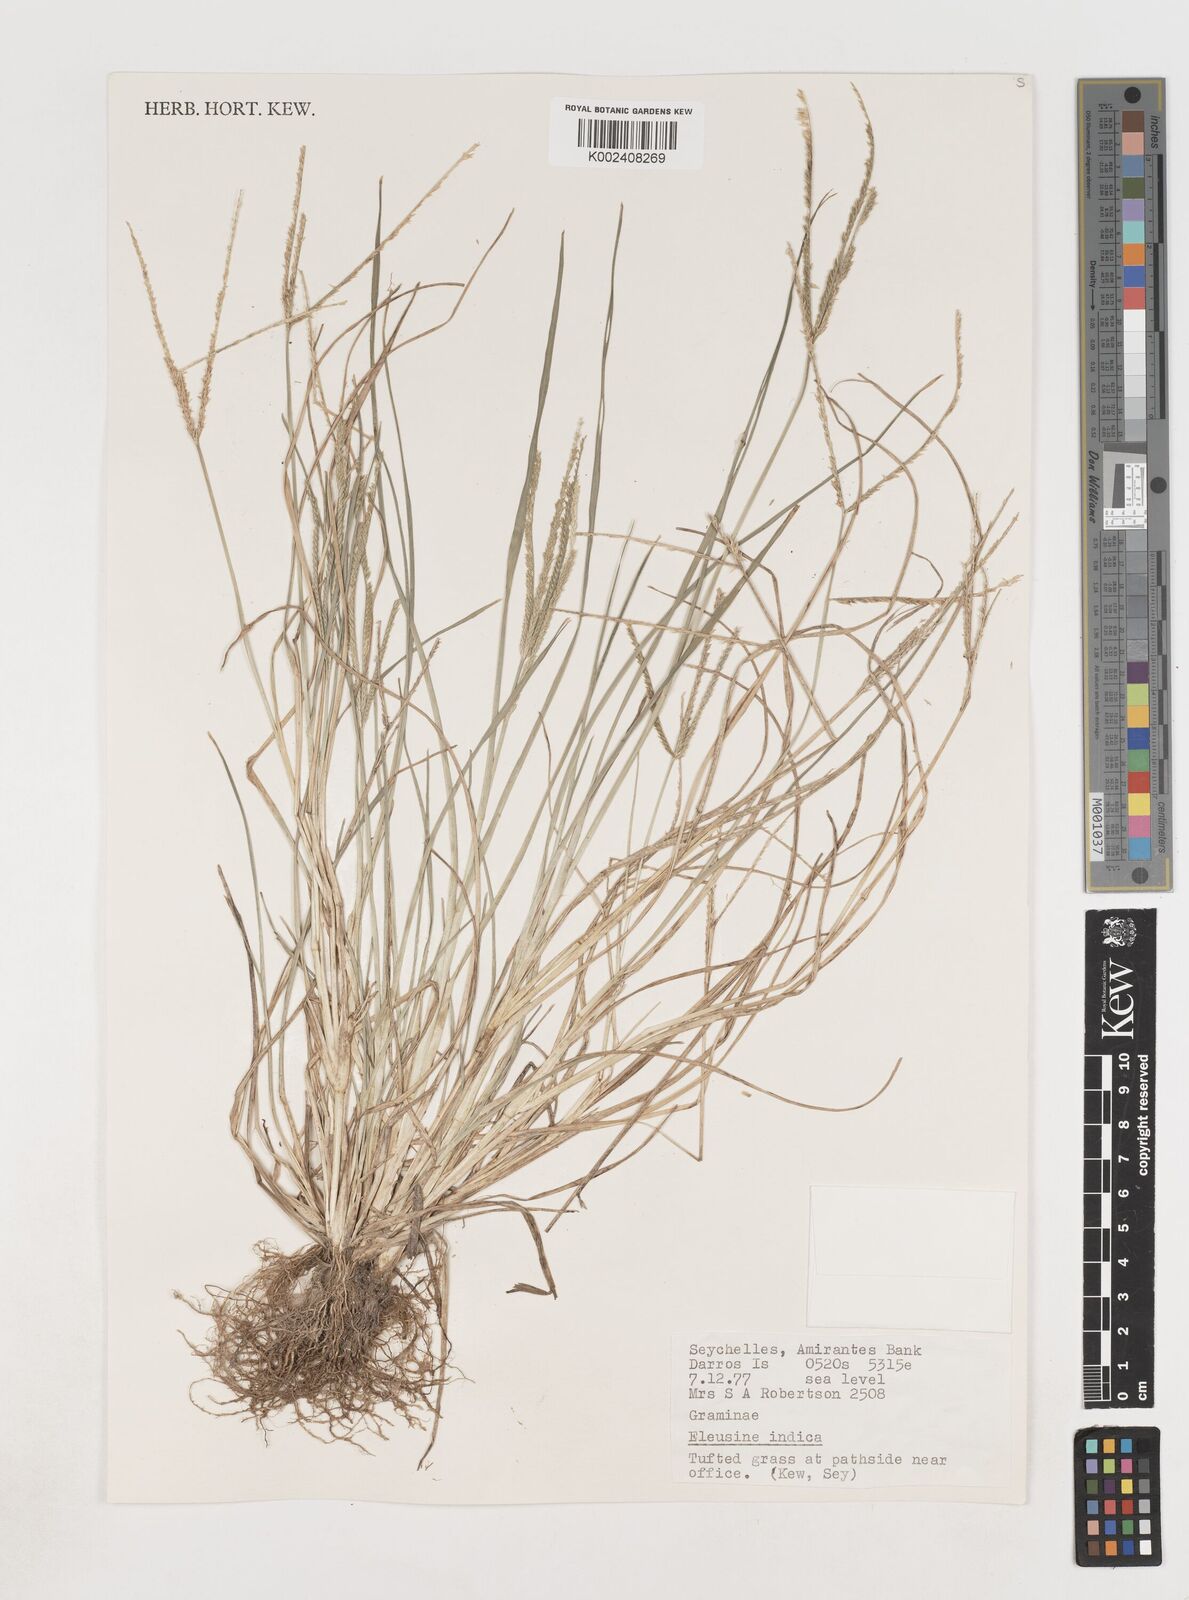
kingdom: Plantae
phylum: Tracheophyta
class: Liliopsida
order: Poales
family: Poaceae
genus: Eleusine
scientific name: Eleusine
